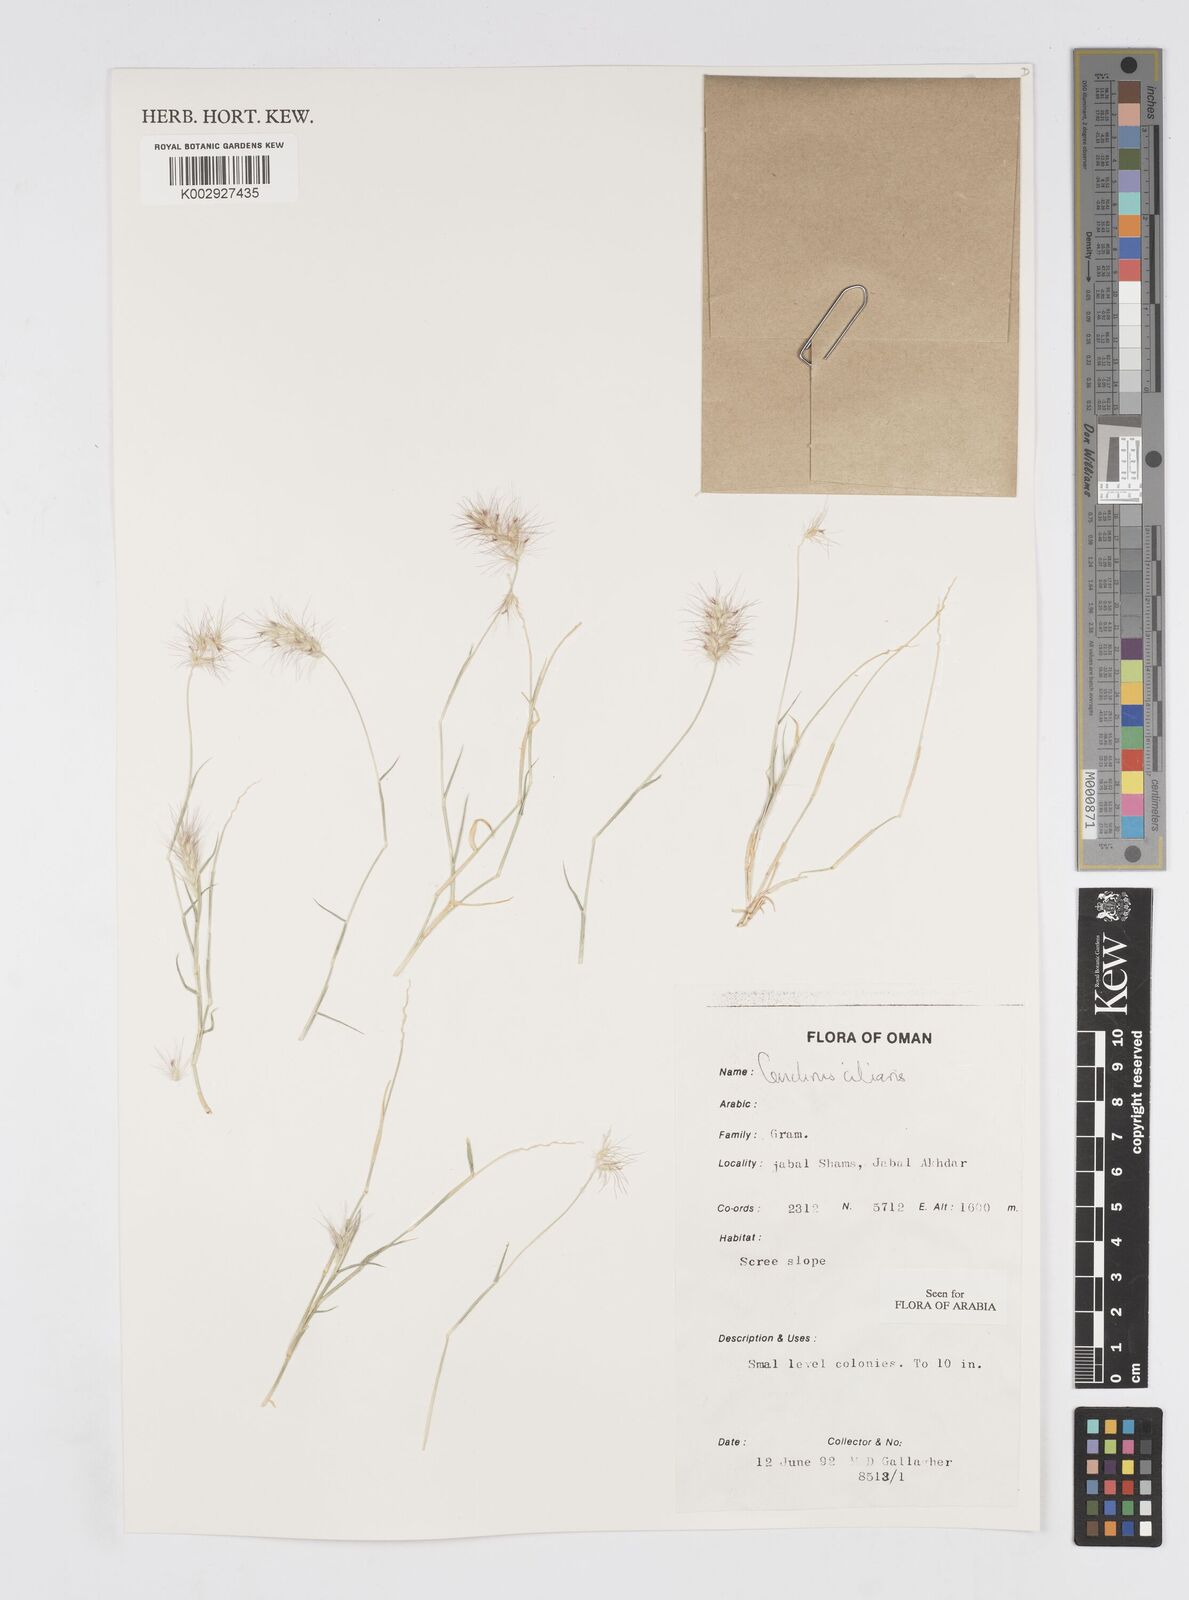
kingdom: Plantae
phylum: Tracheophyta
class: Liliopsida
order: Poales
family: Poaceae
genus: Cenchrus
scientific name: Cenchrus ciliaris
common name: Buffelgrass
